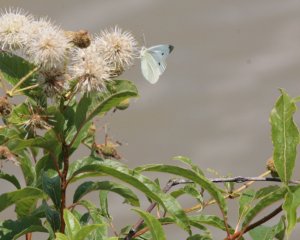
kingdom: Animalia
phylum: Arthropoda
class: Insecta
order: Lepidoptera
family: Pieridae
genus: Pieris
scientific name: Pieris rapae
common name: Cabbage White
